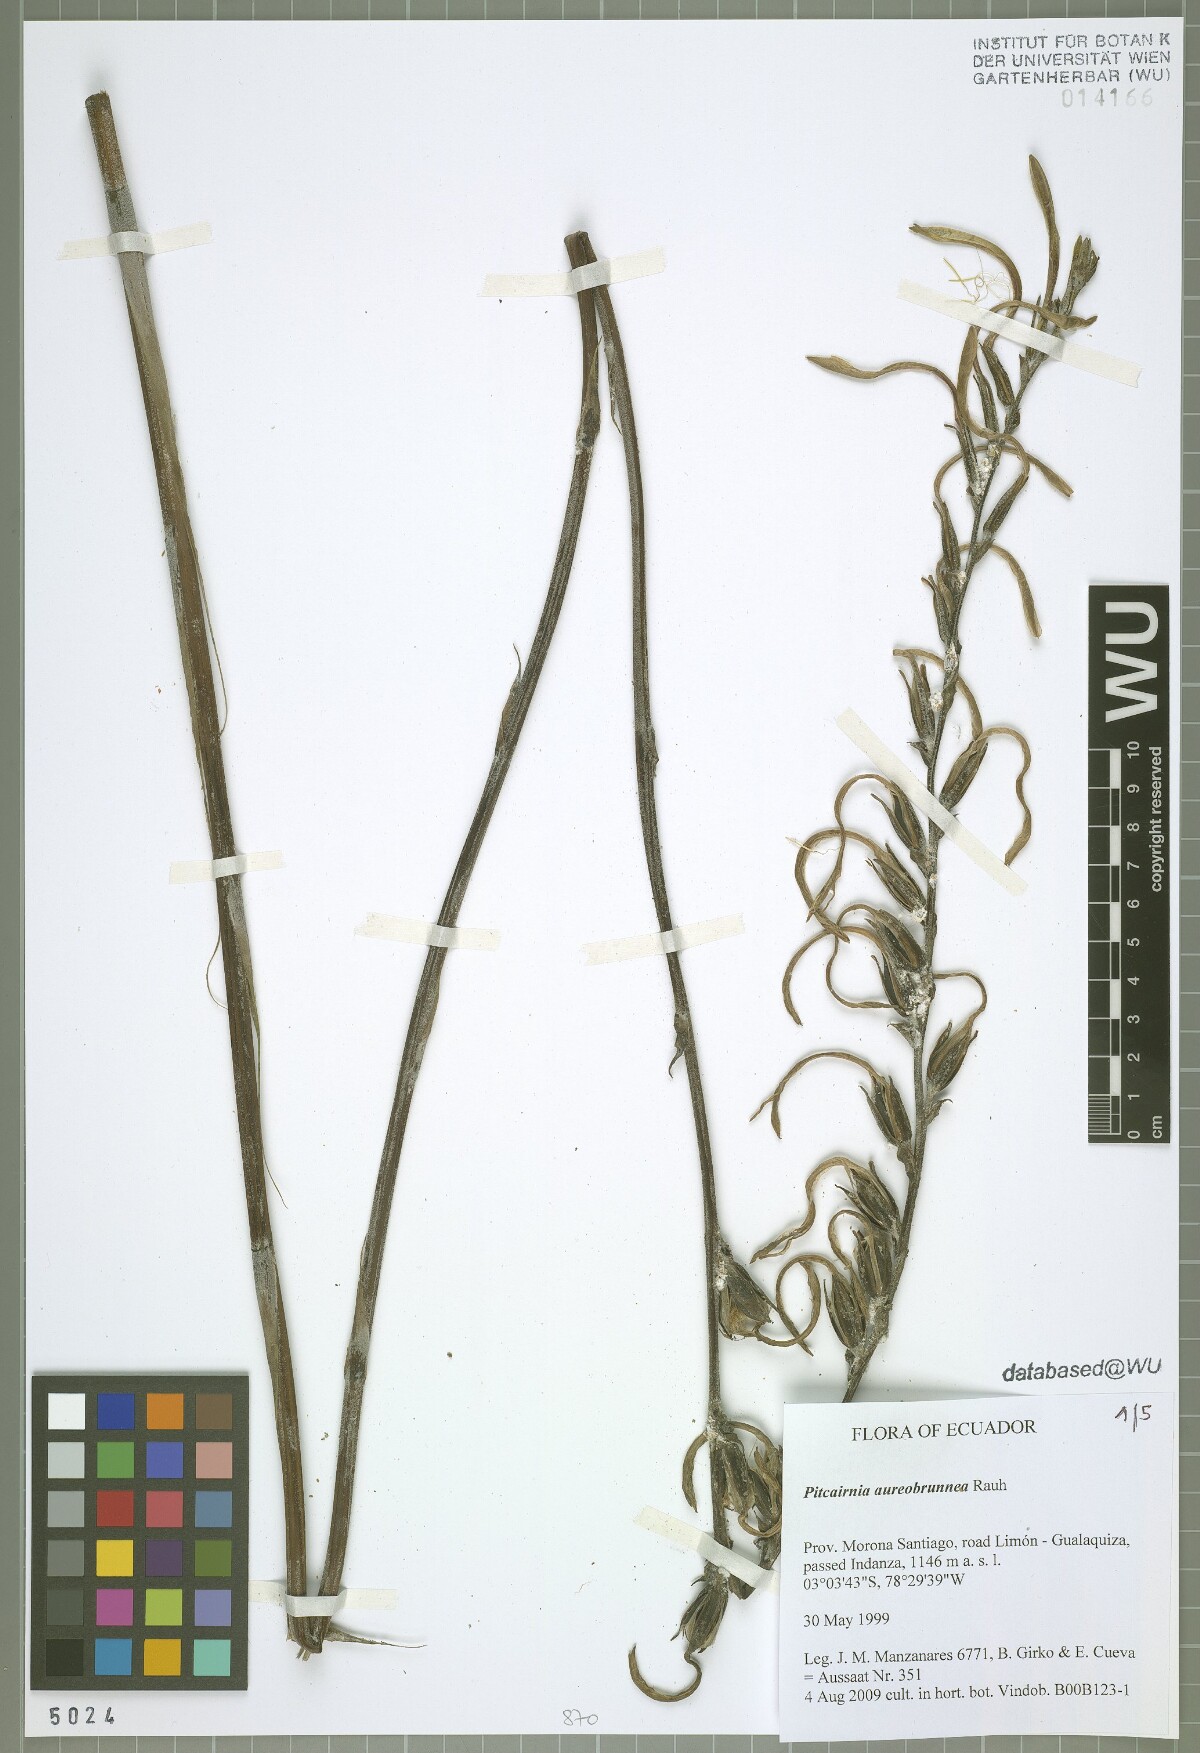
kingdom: Plantae
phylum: Tracheophyta
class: Liliopsida
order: Poales
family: Bromeliaceae
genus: Pitcairnia
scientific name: Pitcairnia aureobrunnea
